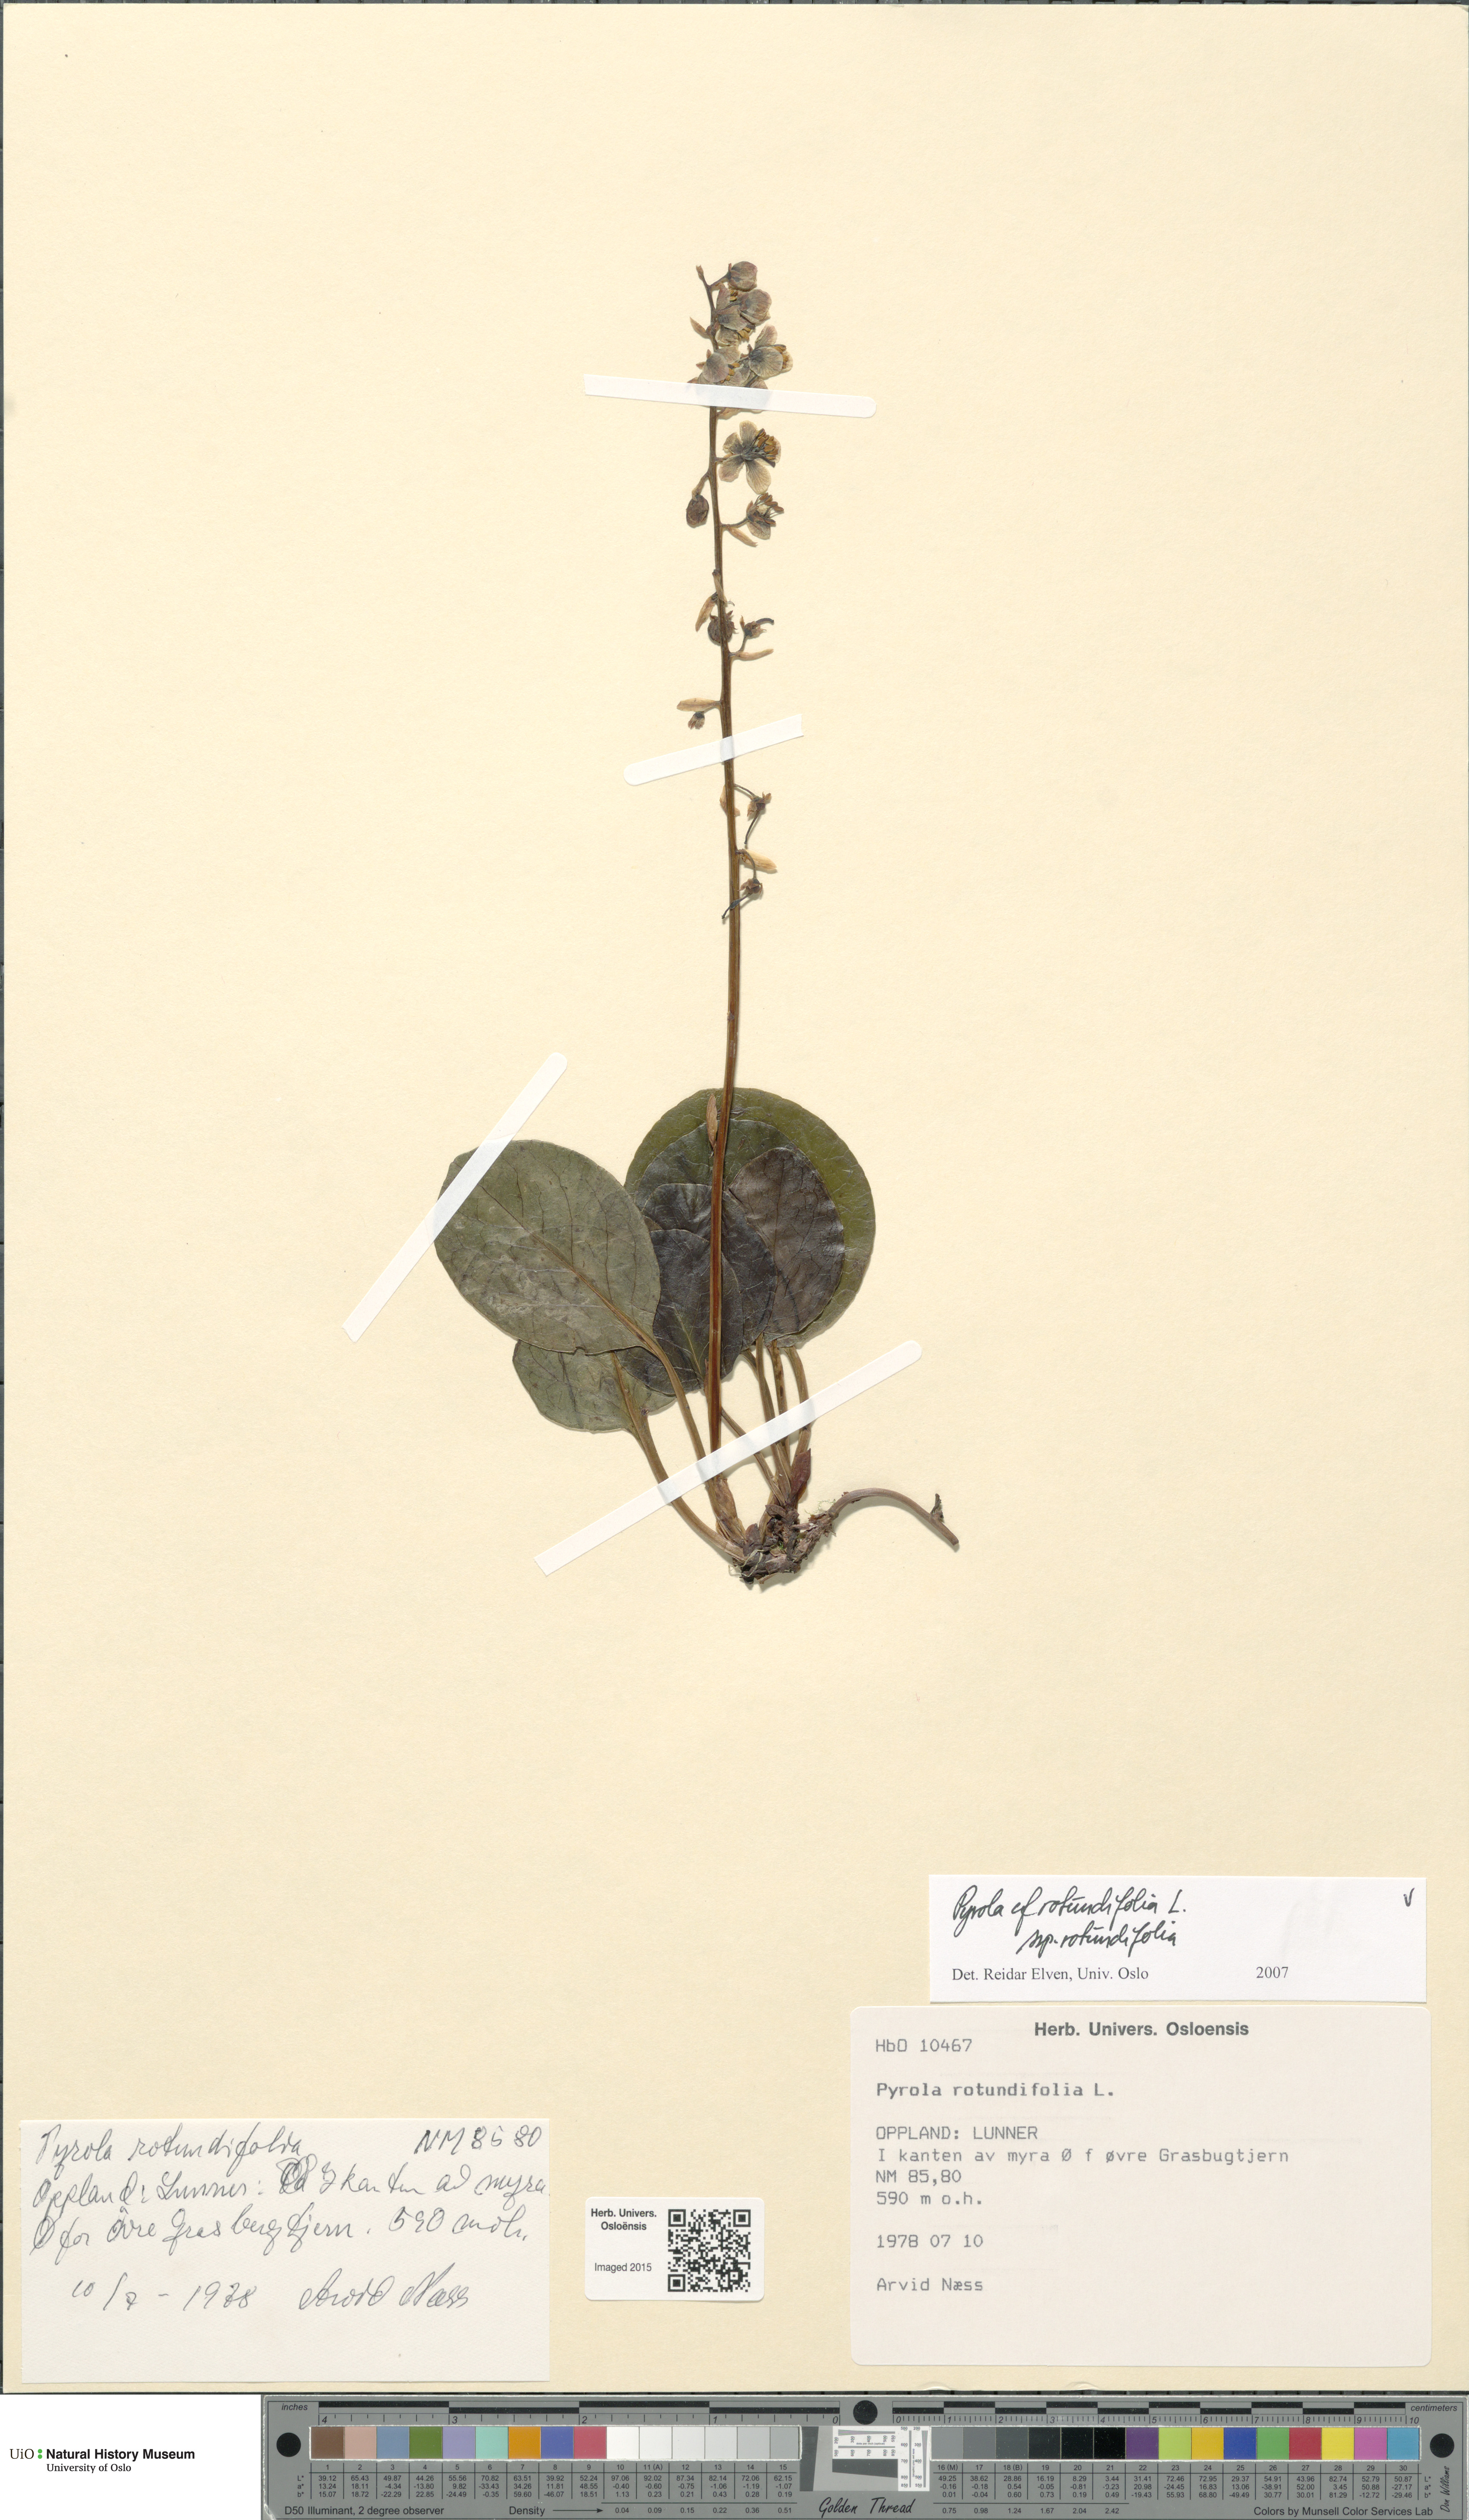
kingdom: Plantae
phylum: Tracheophyta
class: Magnoliopsida
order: Ericales
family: Ericaceae
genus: Pyrola
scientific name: Pyrola rotundifolia
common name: Round-leaved wintergreen
